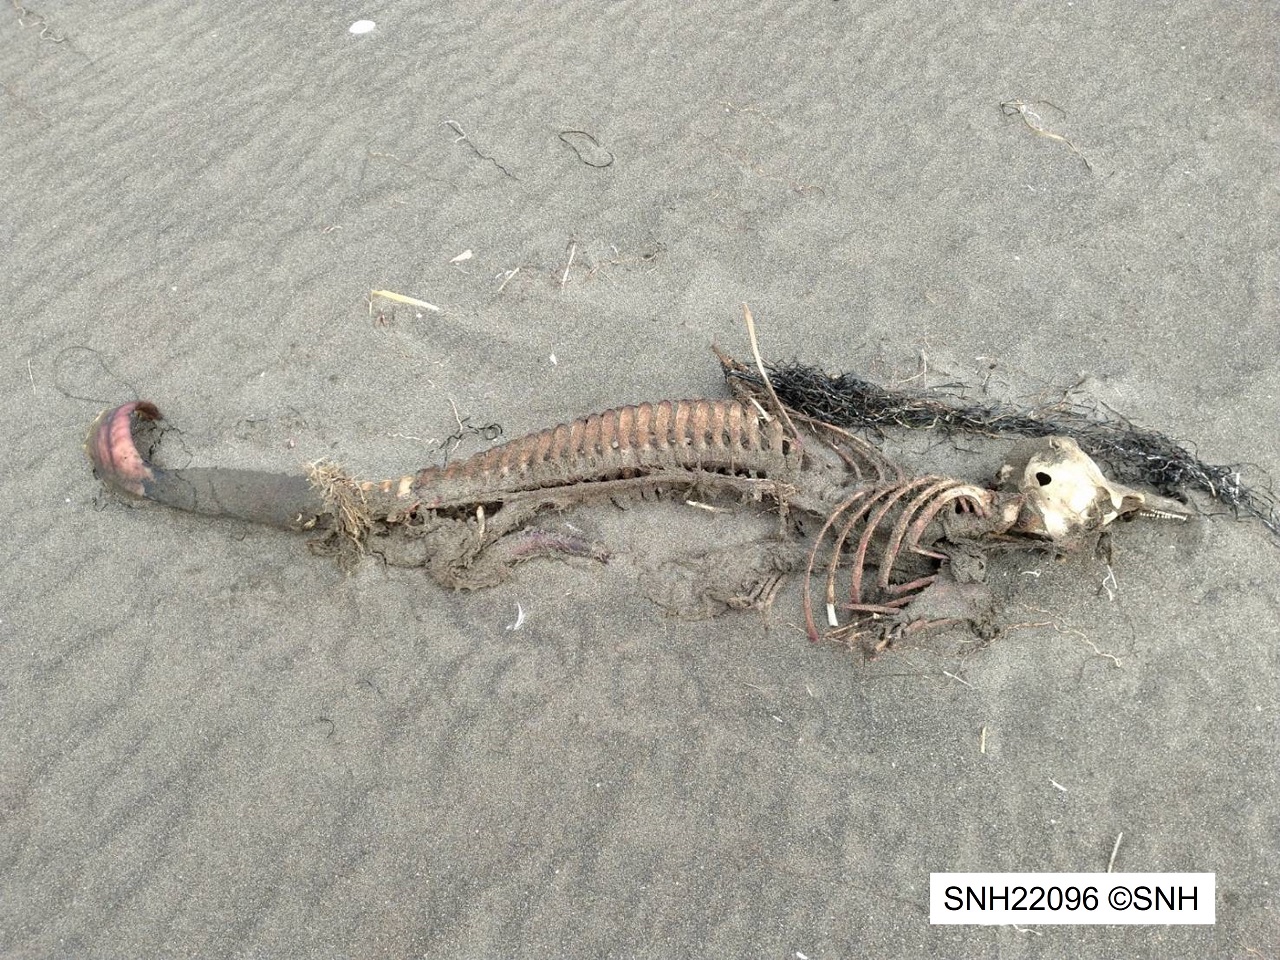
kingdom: Animalia
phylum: Chordata
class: Mammalia
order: Cetacea
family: Phocoenidae
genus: Phocoena
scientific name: Phocoena phocoena
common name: Harbour porpoise
